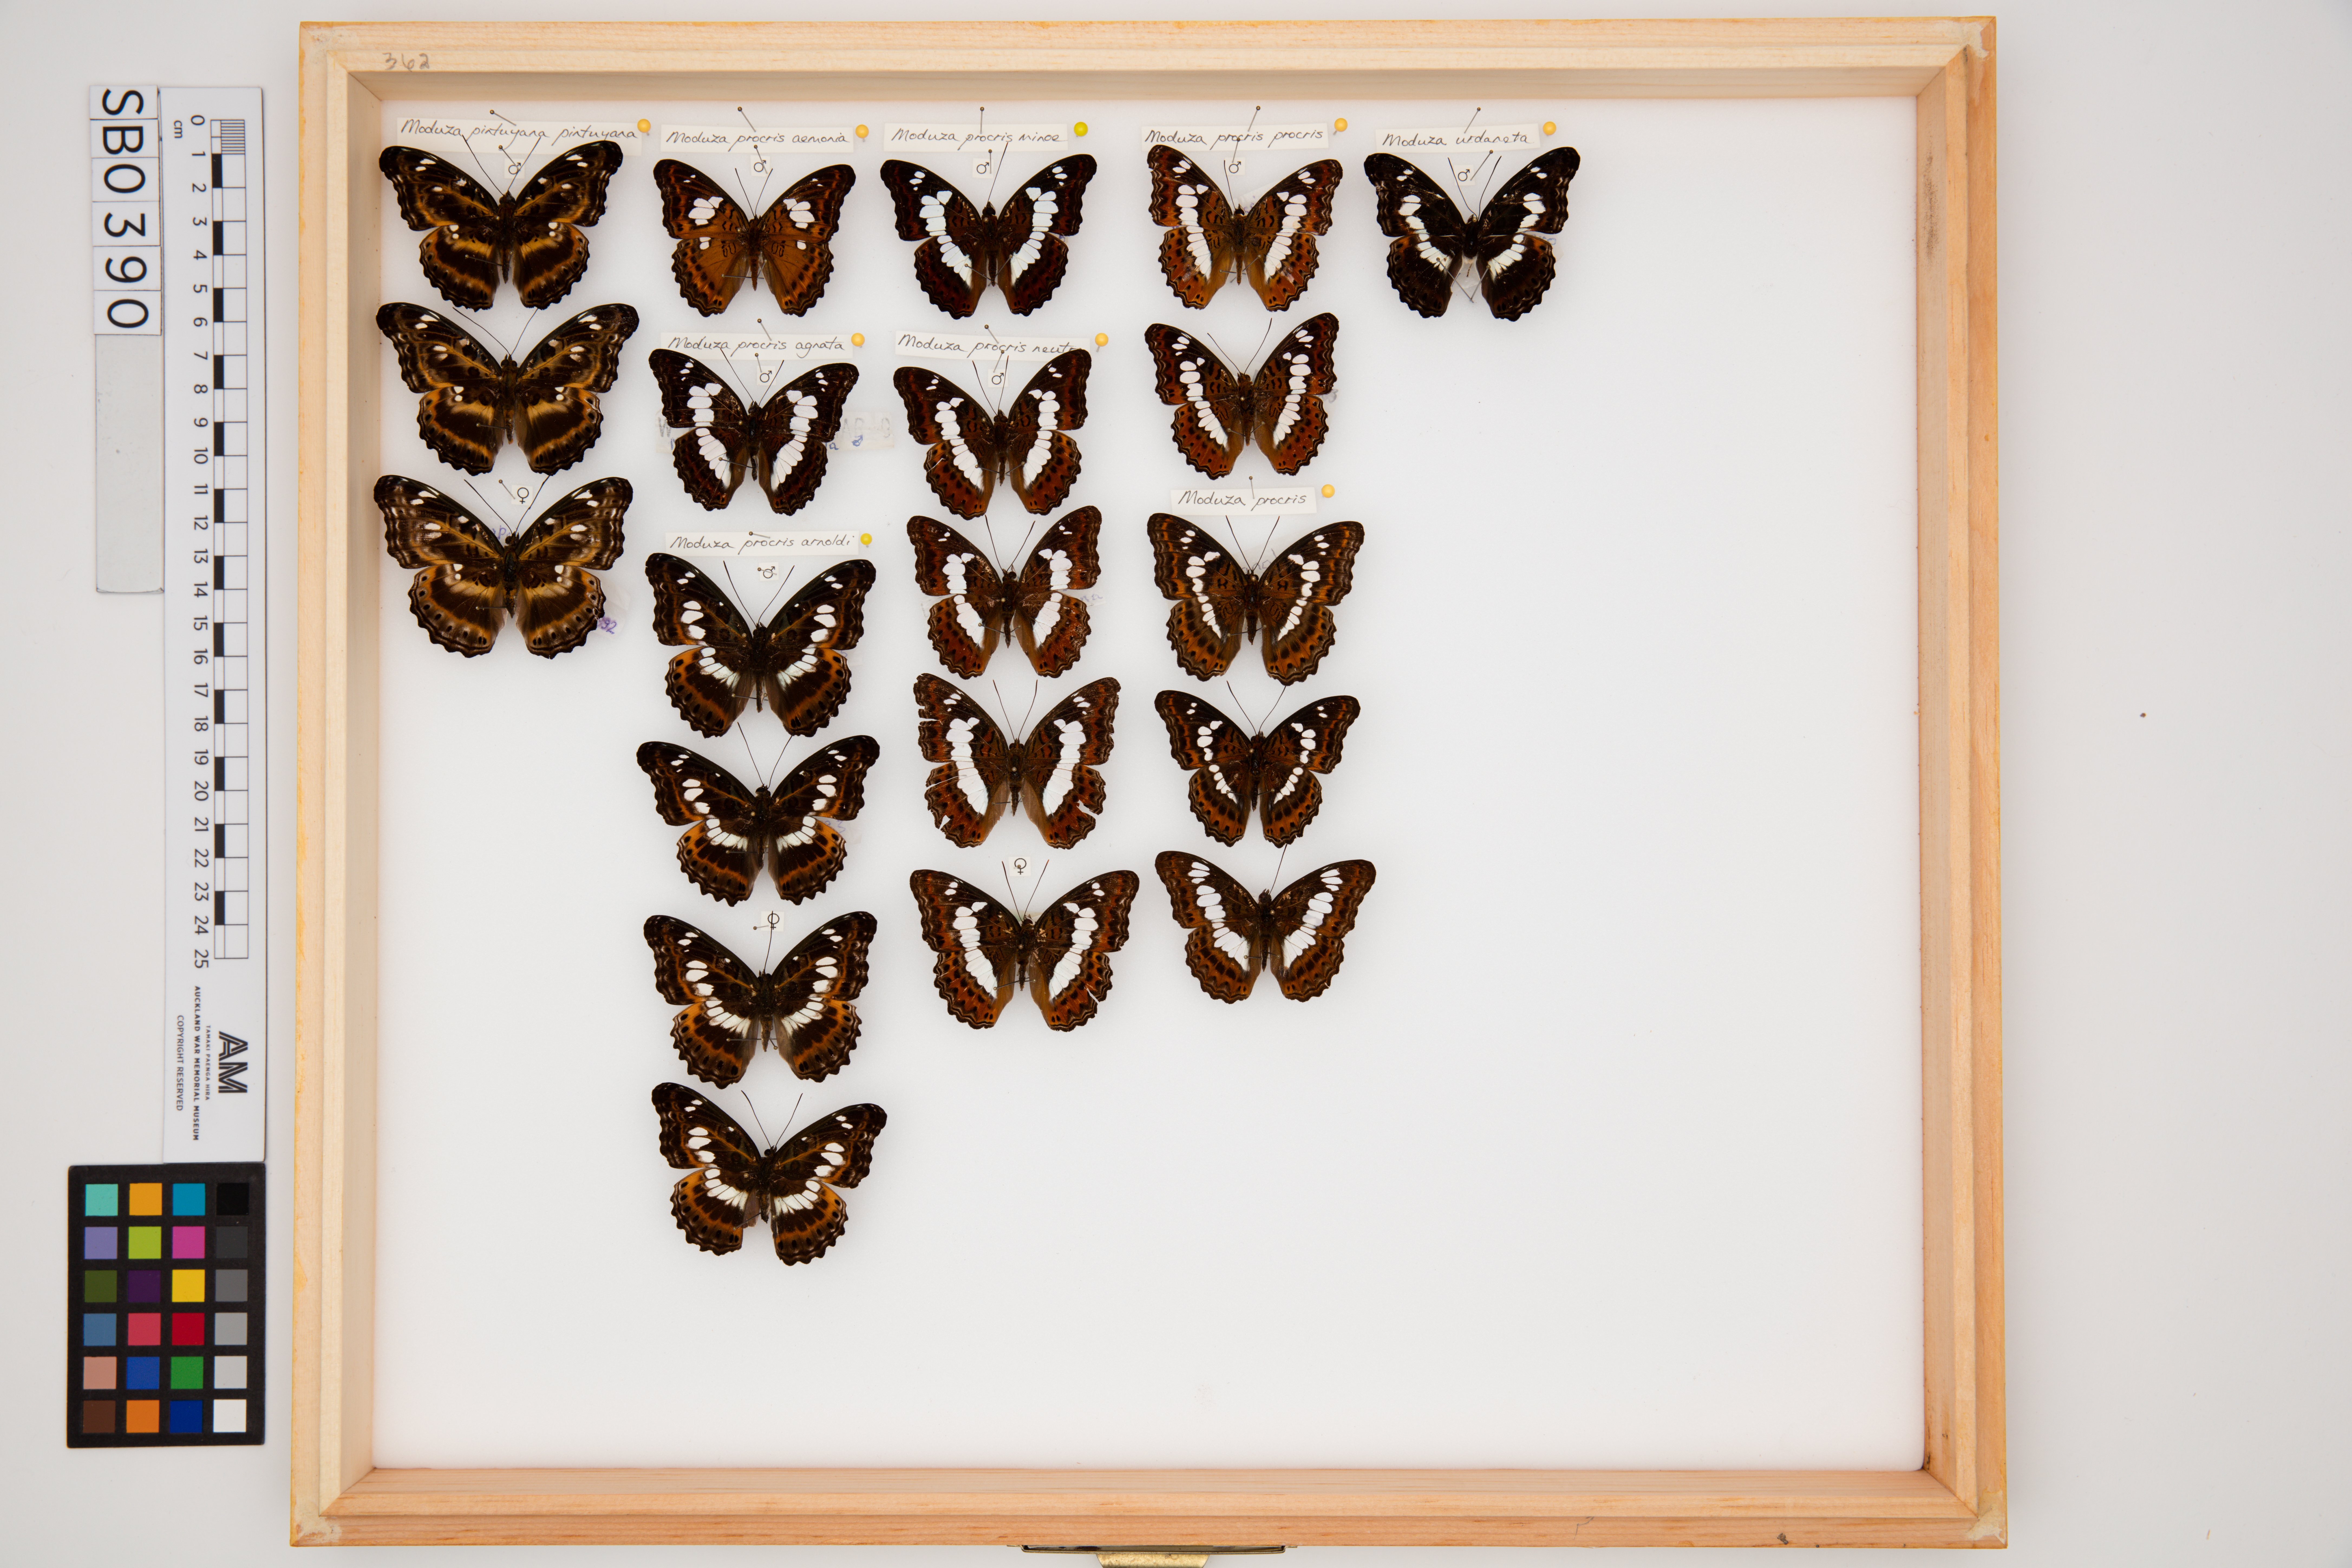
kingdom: Animalia
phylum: Arthropoda
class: Insecta
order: Lepidoptera
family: Nymphalidae
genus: Limenitis
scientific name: Limenitis Moduza procris
